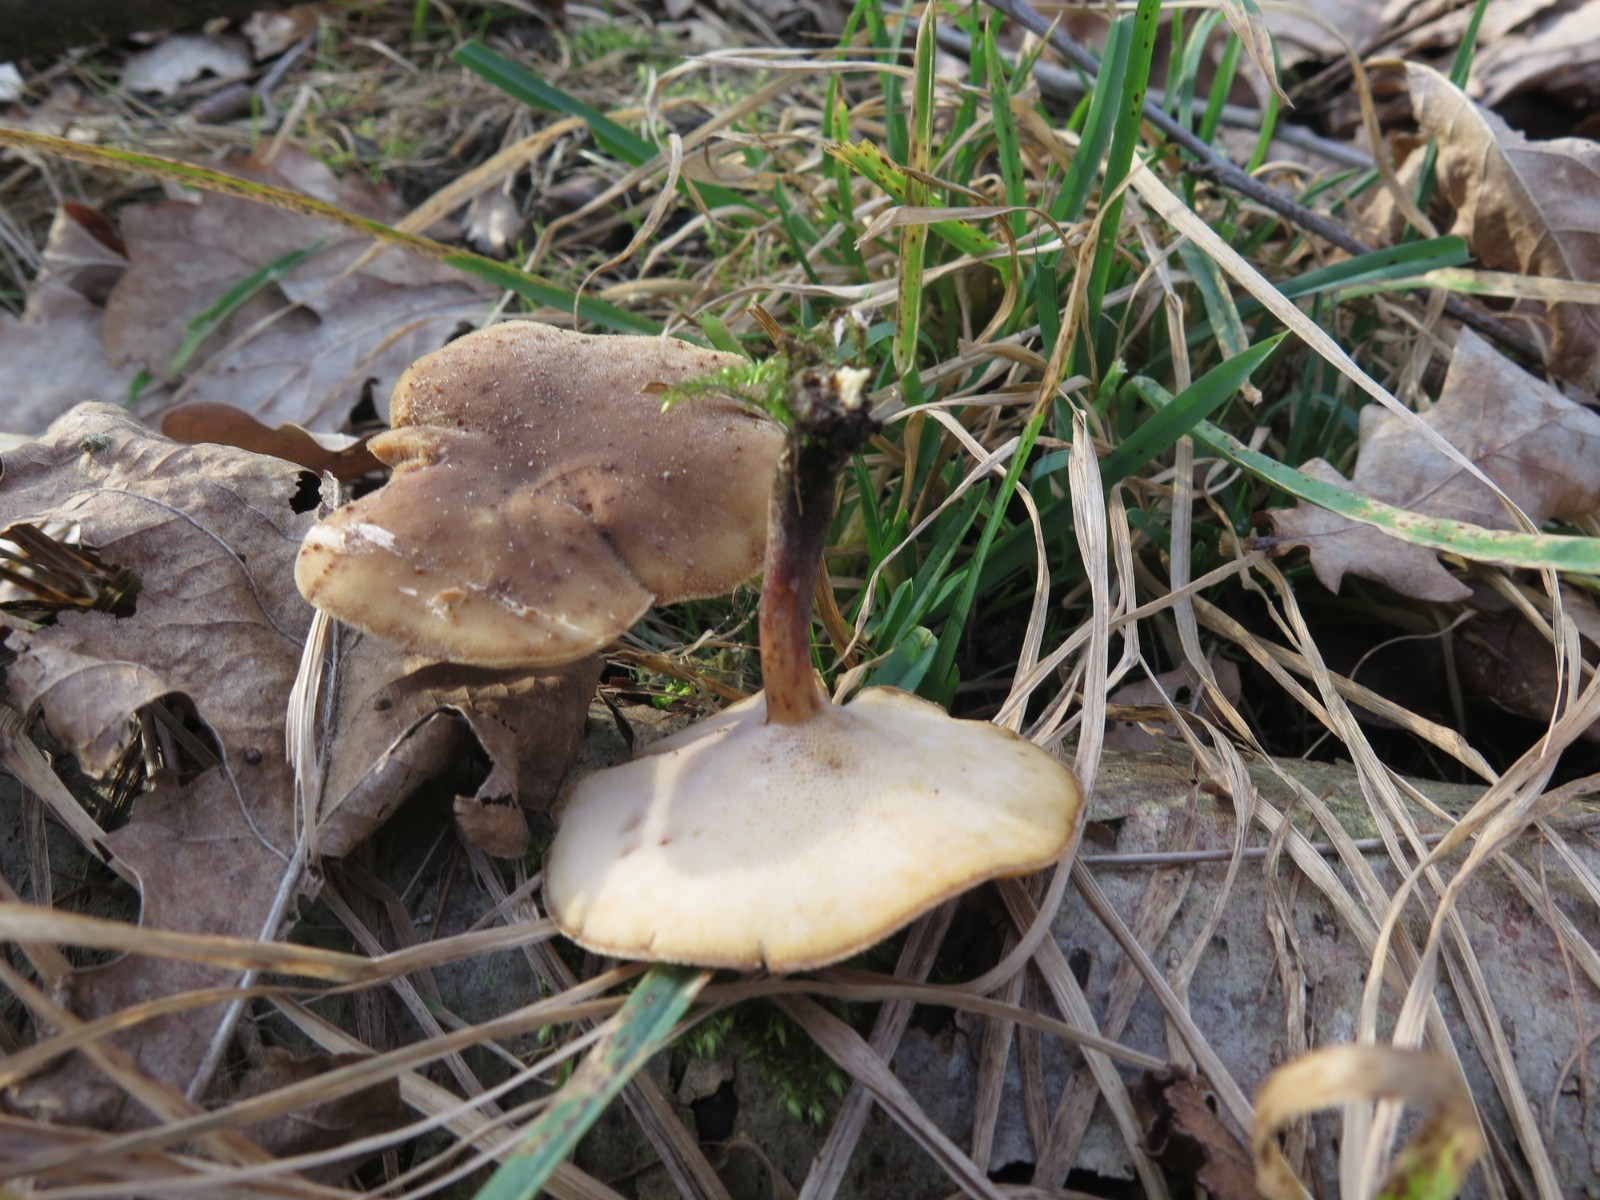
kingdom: Fungi
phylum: Basidiomycota
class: Agaricomycetes
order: Polyporales
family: Polyporaceae
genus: Lentinus
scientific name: Lentinus substrictus
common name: forårs-stilkporesvamp
